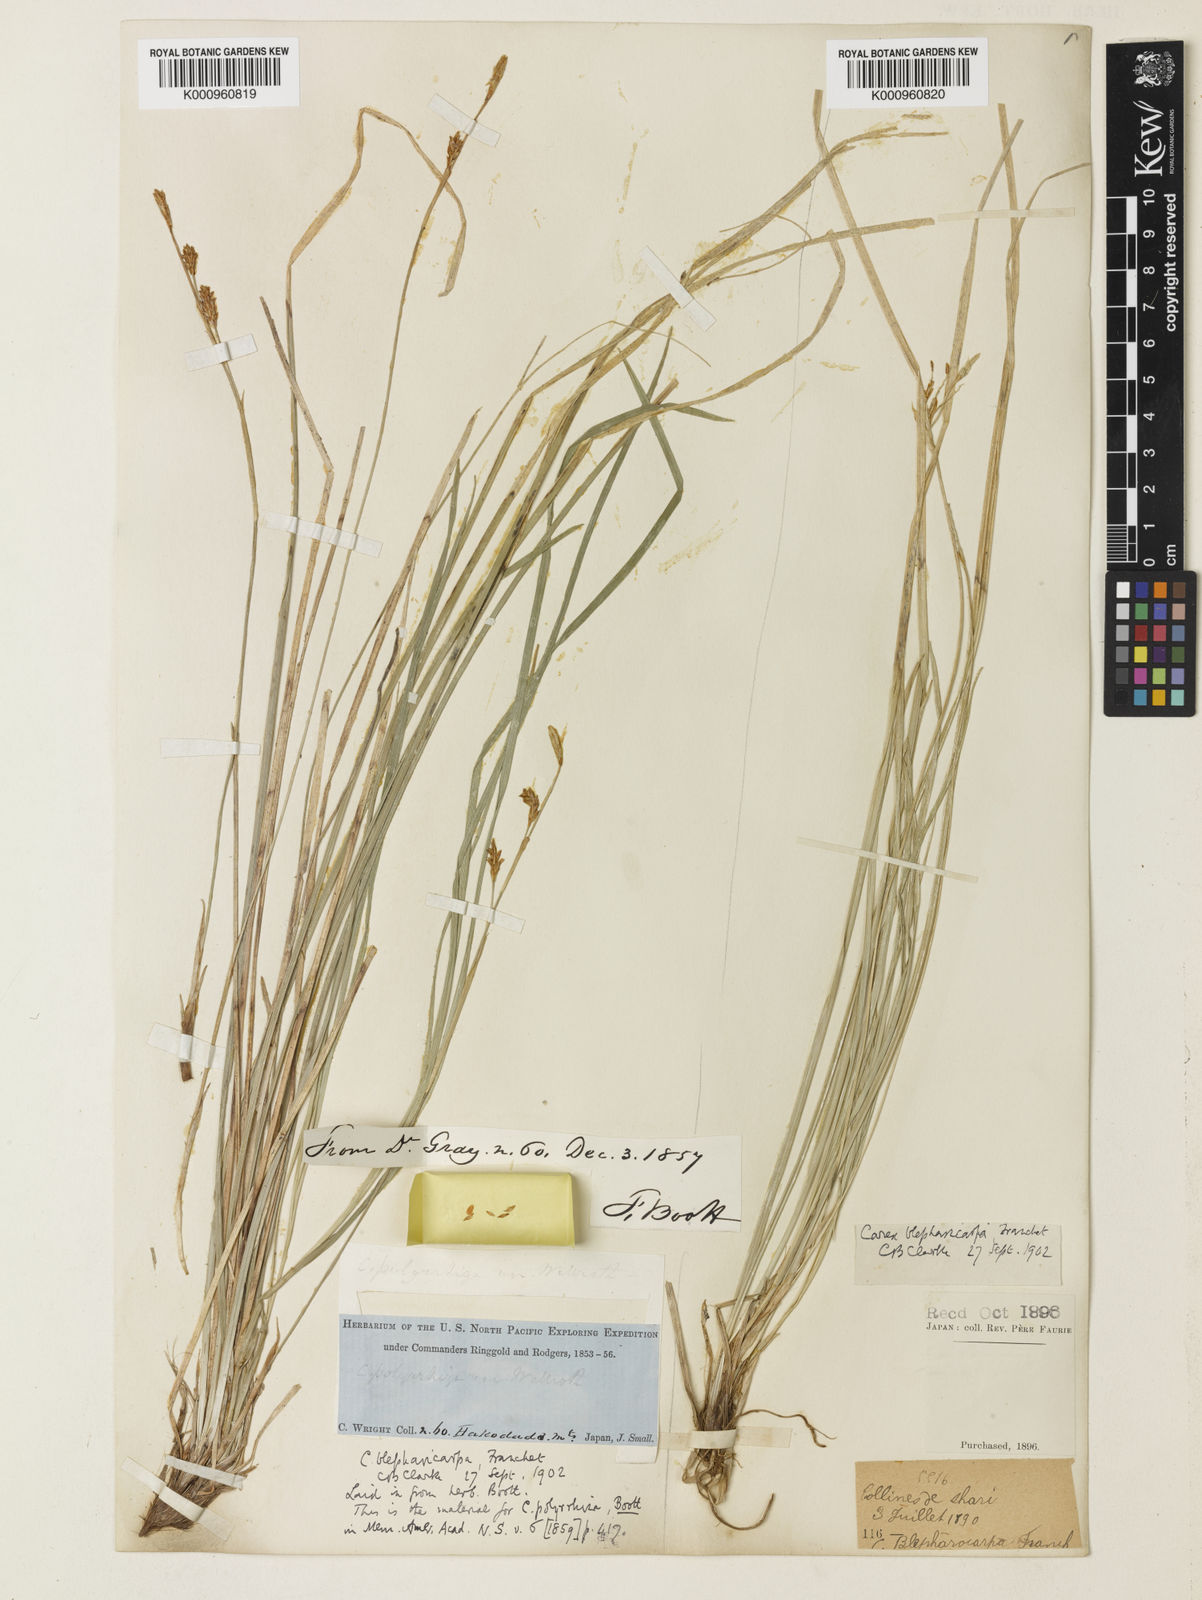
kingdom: Plantae
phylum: Tracheophyta
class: Liliopsida
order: Poales
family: Cyperaceae
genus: Carex
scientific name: Carex blepharicarpa
